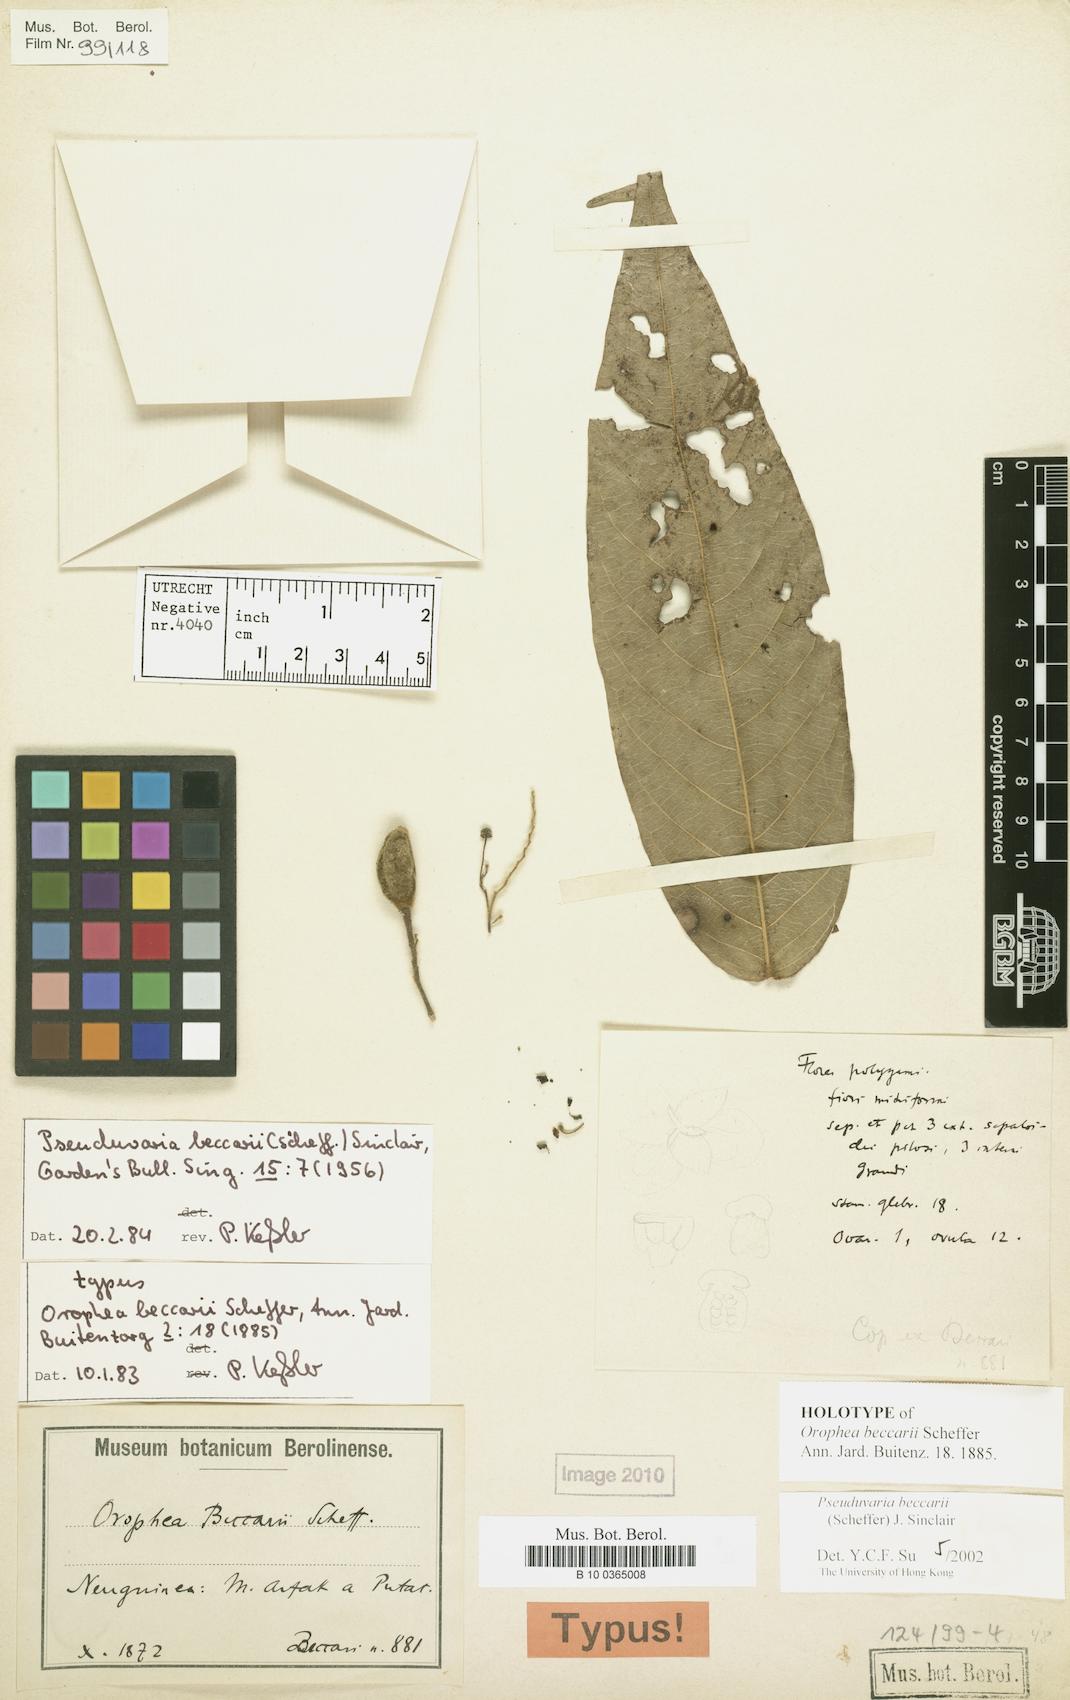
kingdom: Plantae
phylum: Tracheophyta
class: Magnoliopsida
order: Magnoliales
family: Annonaceae
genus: Pseuduvaria
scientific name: Pseuduvaria beccarii
